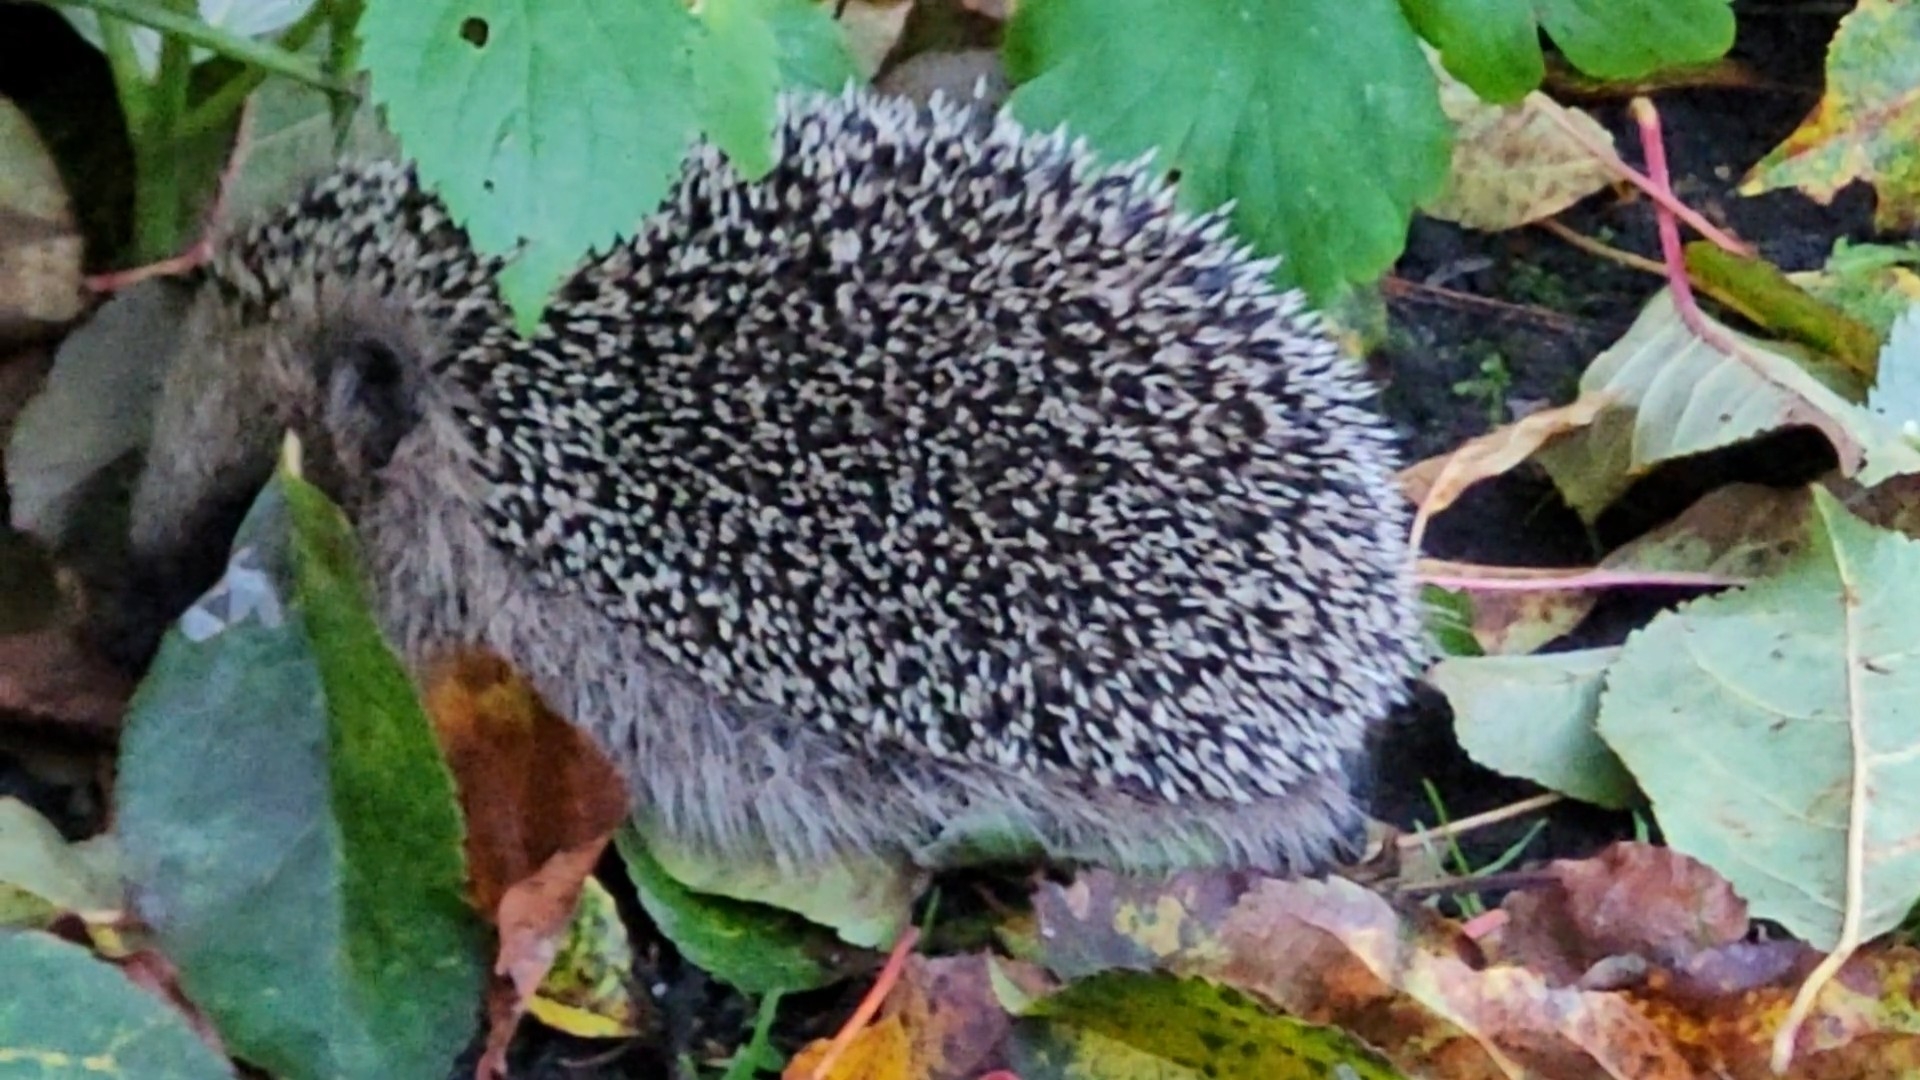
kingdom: Animalia
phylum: Chordata
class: Mammalia
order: Erinaceomorpha
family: Erinaceidae
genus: Erinaceus
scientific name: Erinaceus europaeus
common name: Pindsvin
